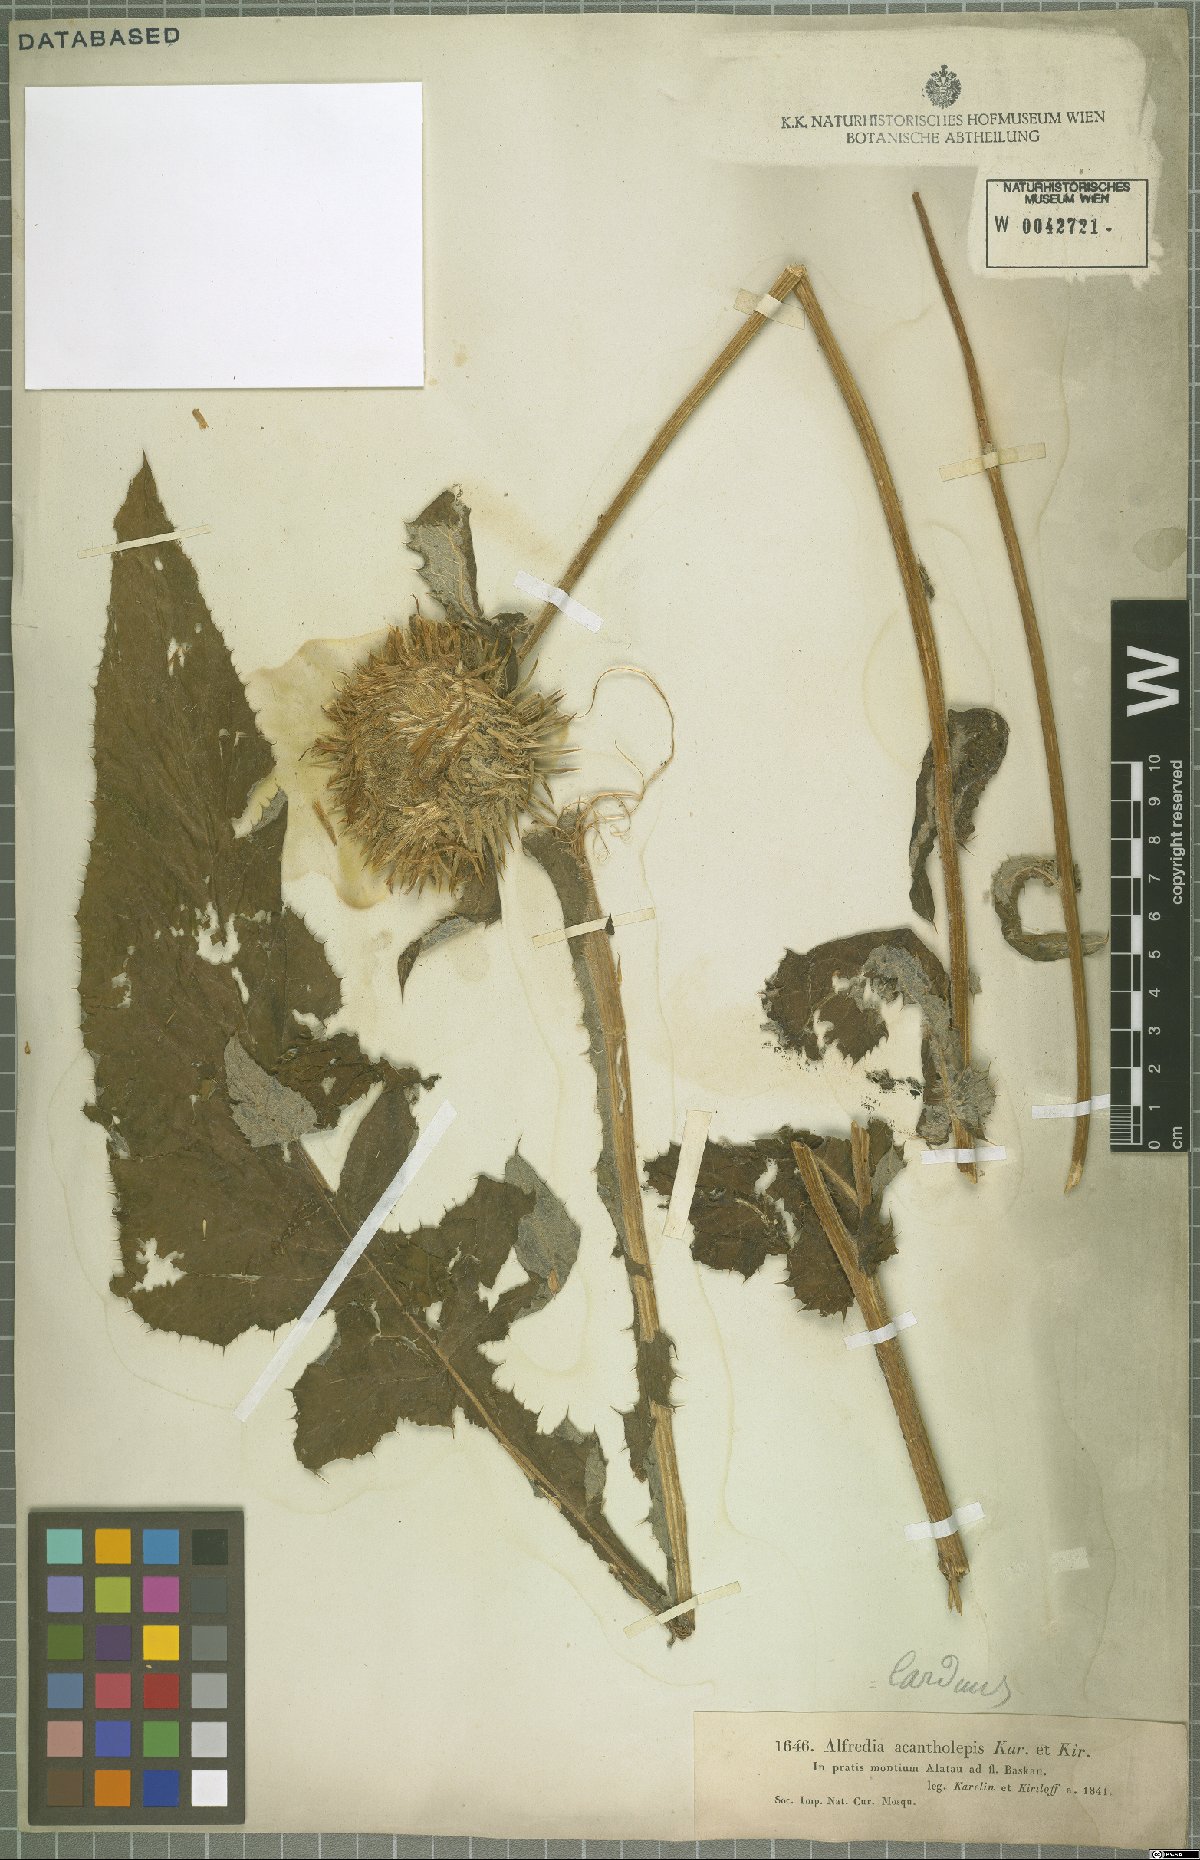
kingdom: Plantae
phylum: Tracheophyta
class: Magnoliopsida
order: Asterales
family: Asteraceae
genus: Alfredia
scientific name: Alfredia acantholepis
